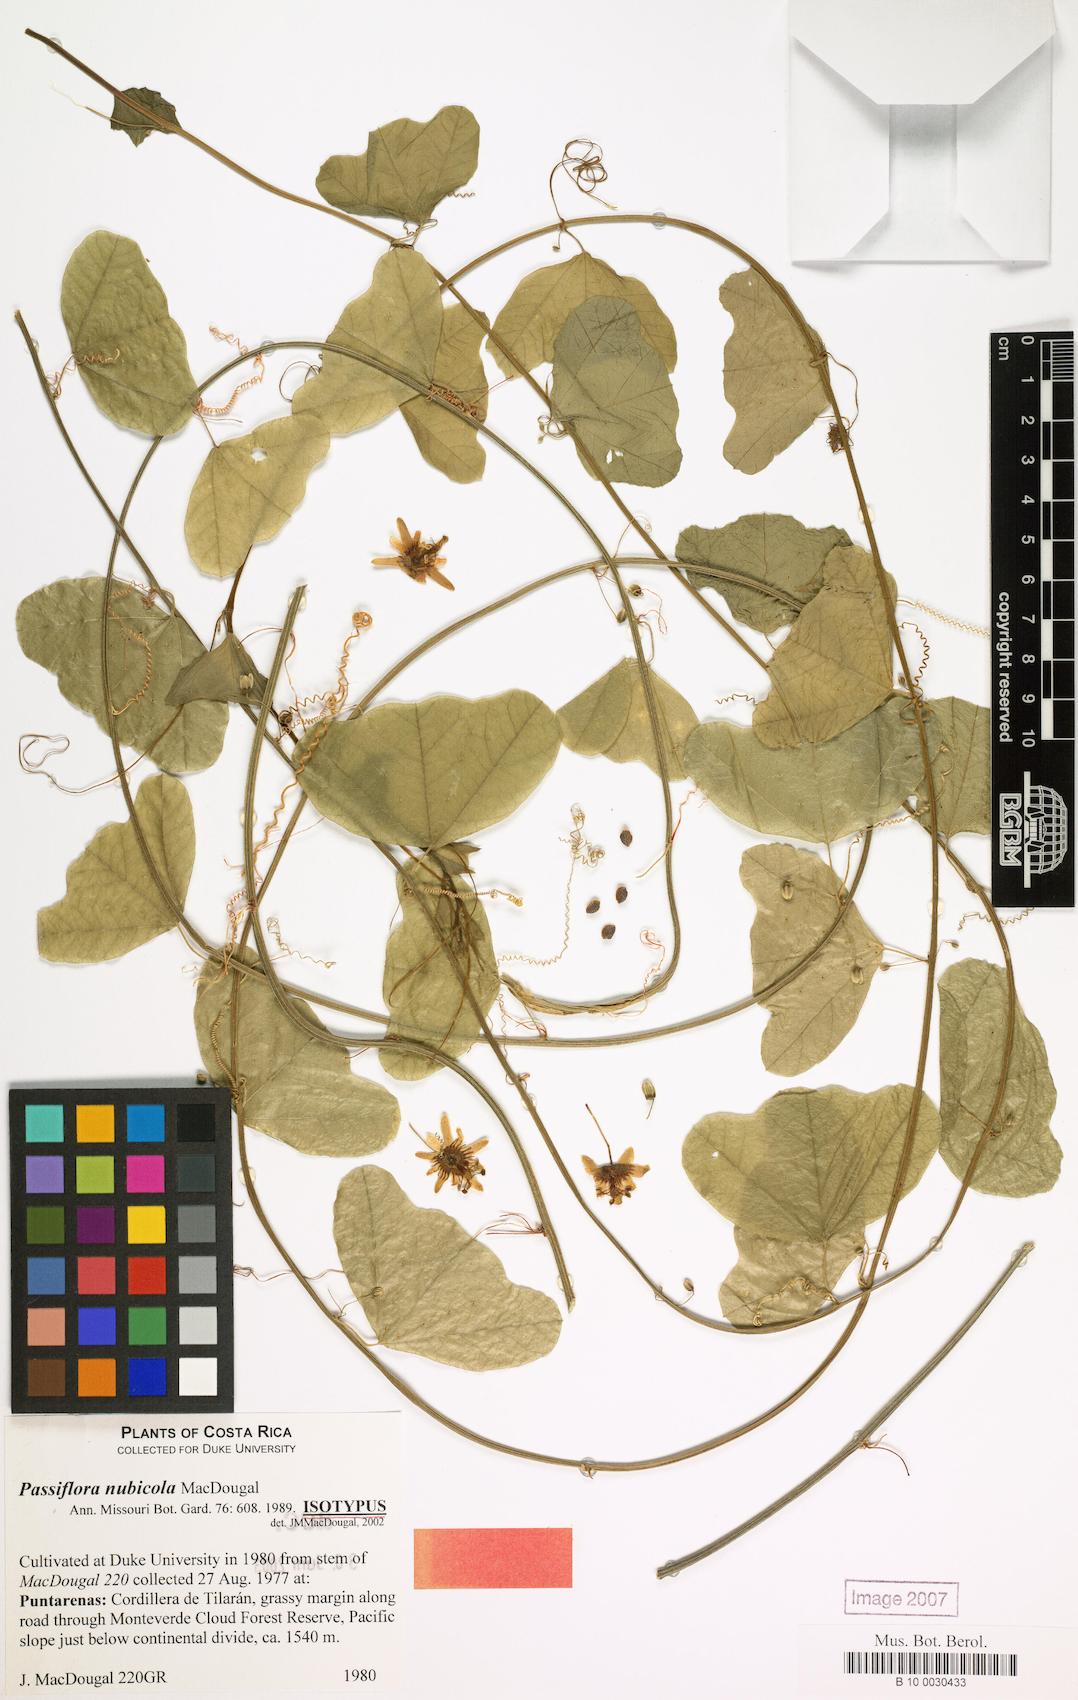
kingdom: Plantae
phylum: Tracheophyta
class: Magnoliopsida
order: Malpighiales
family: Passifloraceae
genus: Passiflora
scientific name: Passiflora nubicola
